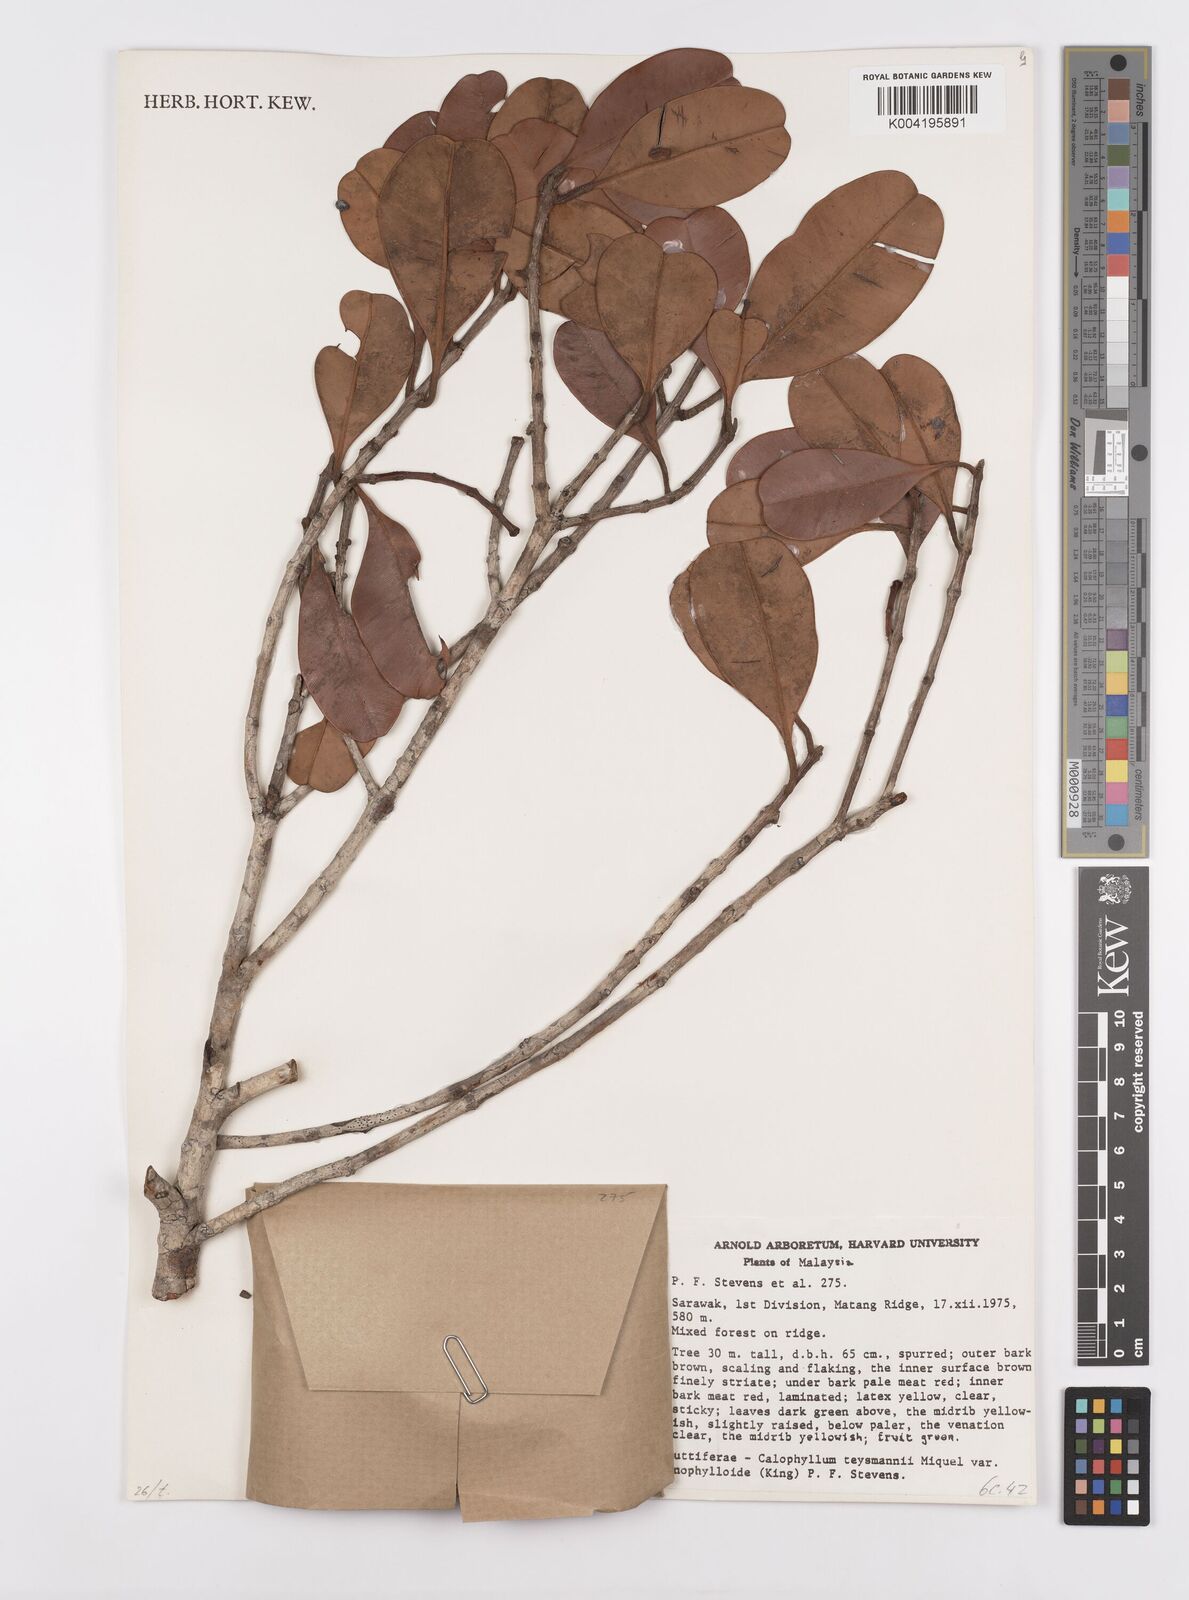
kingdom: Plantae
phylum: Tracheophyta
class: Magnoliopsida
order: Malpighiales
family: Calophyllaceae
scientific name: Calophyllaceae
